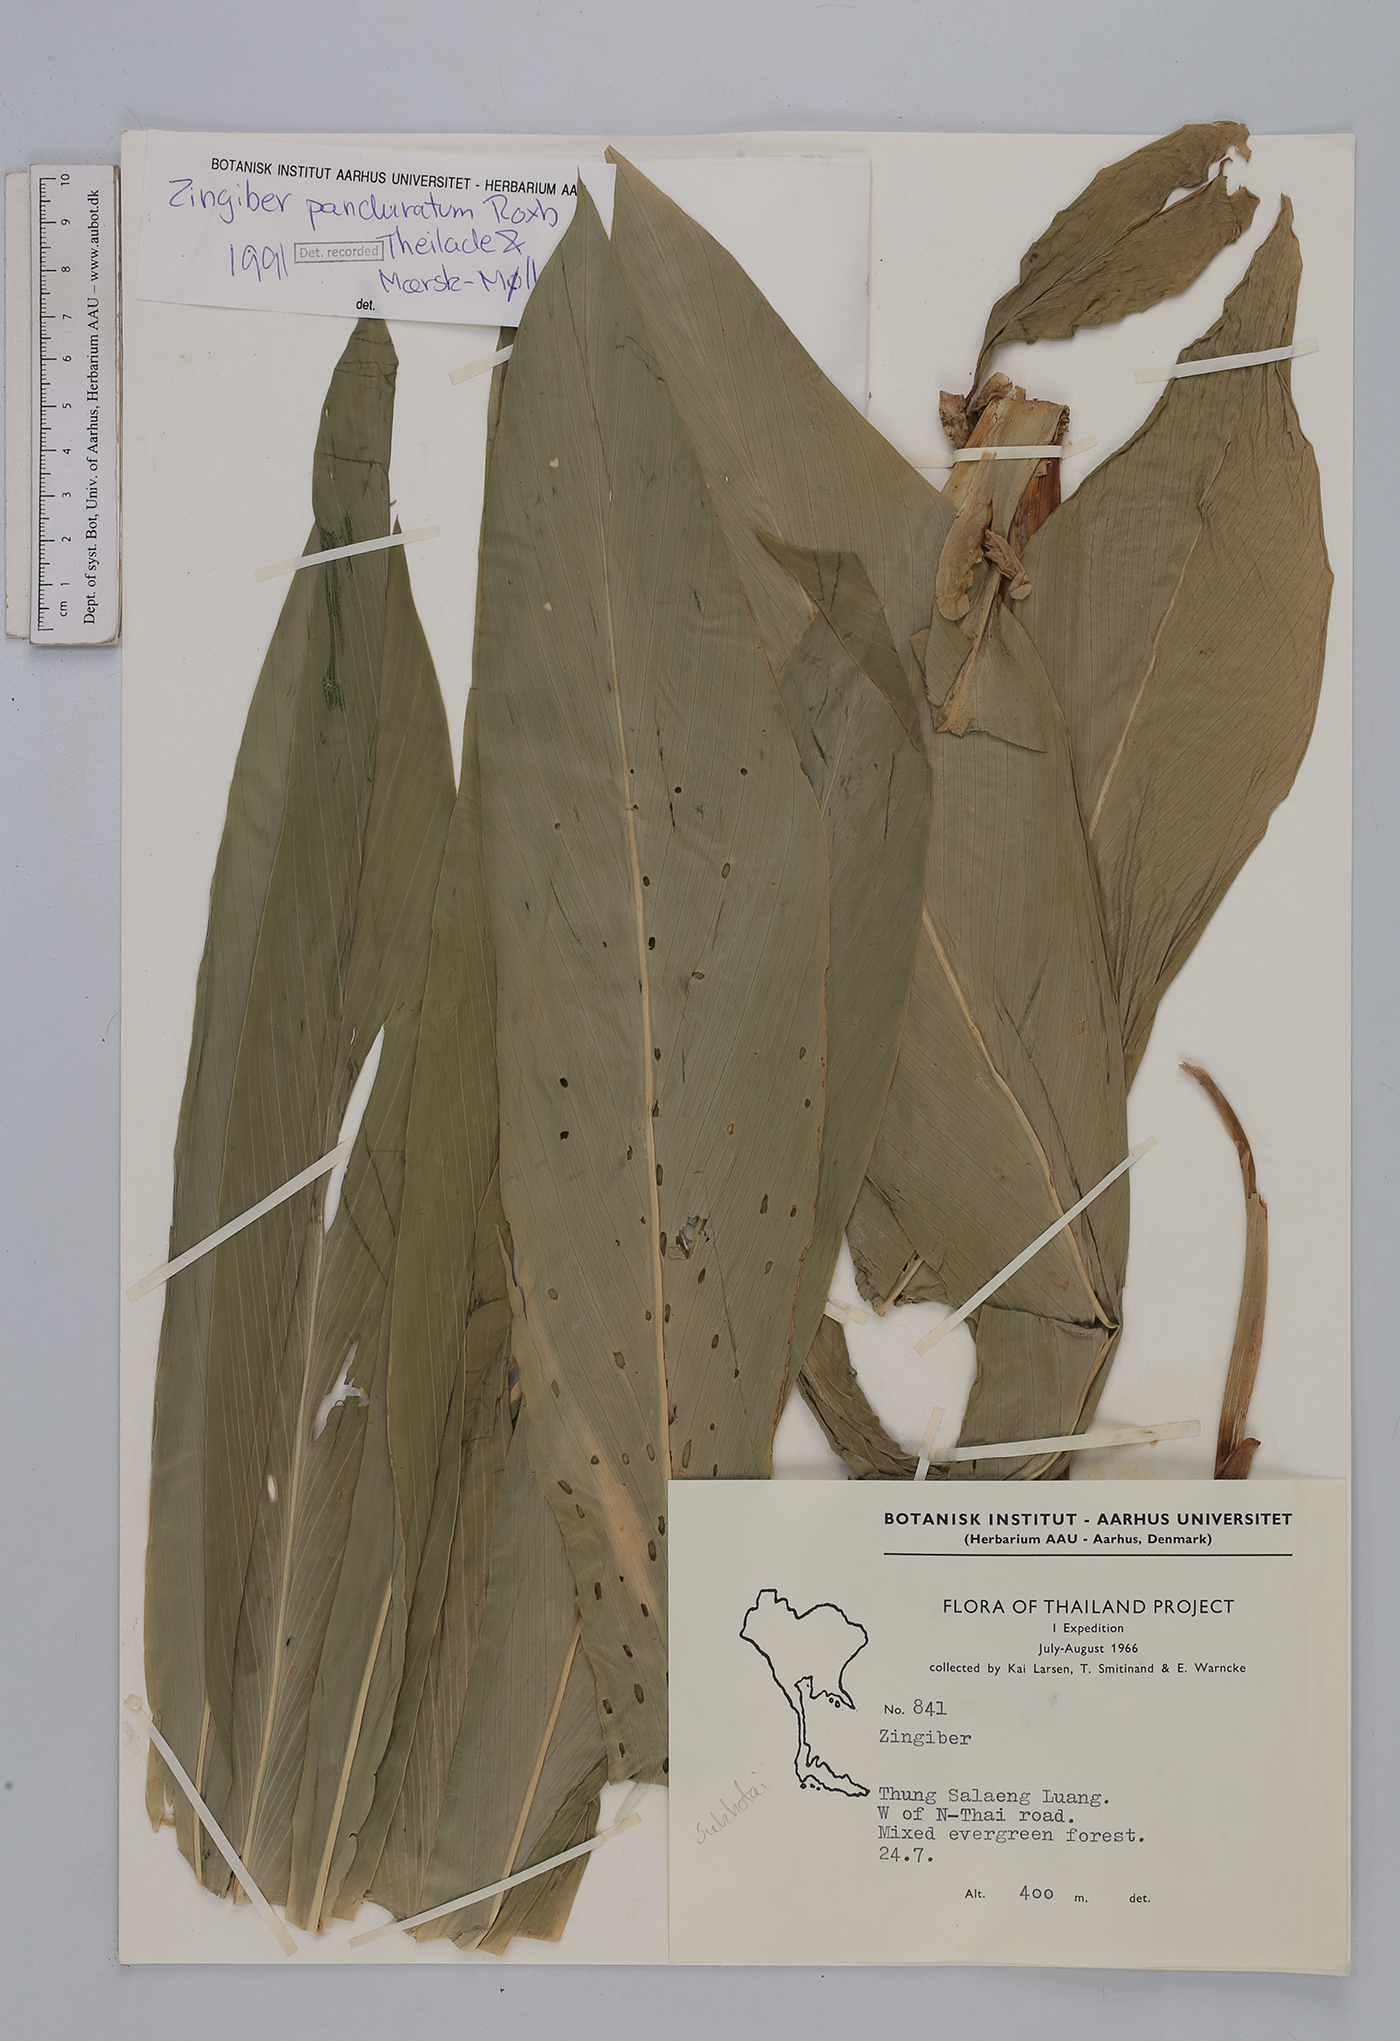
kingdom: Plantae
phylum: Tracheophyta
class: Liliopsida
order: Zingiberales
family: Zingiberaceae
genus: Zingiber
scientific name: Zingiber panduratum
